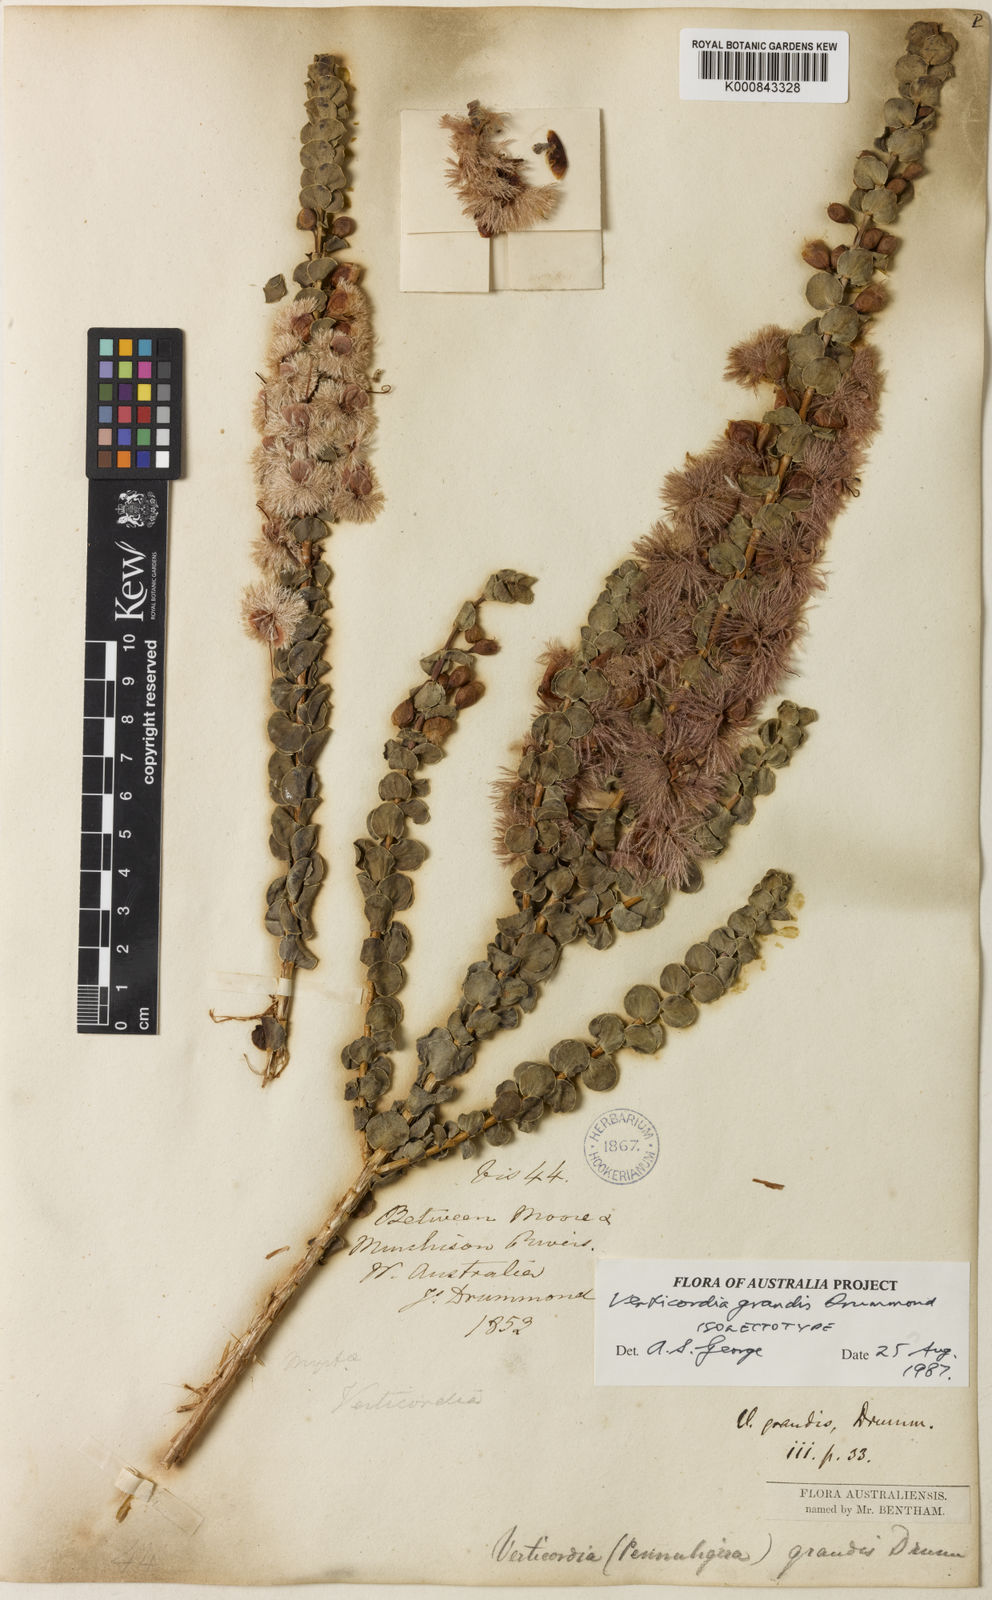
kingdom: Plantae
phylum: Tracheophyta
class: Magnoliopsida
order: Myrtales
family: Myrtaceae
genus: Verticordia
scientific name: Verticordia grandis
